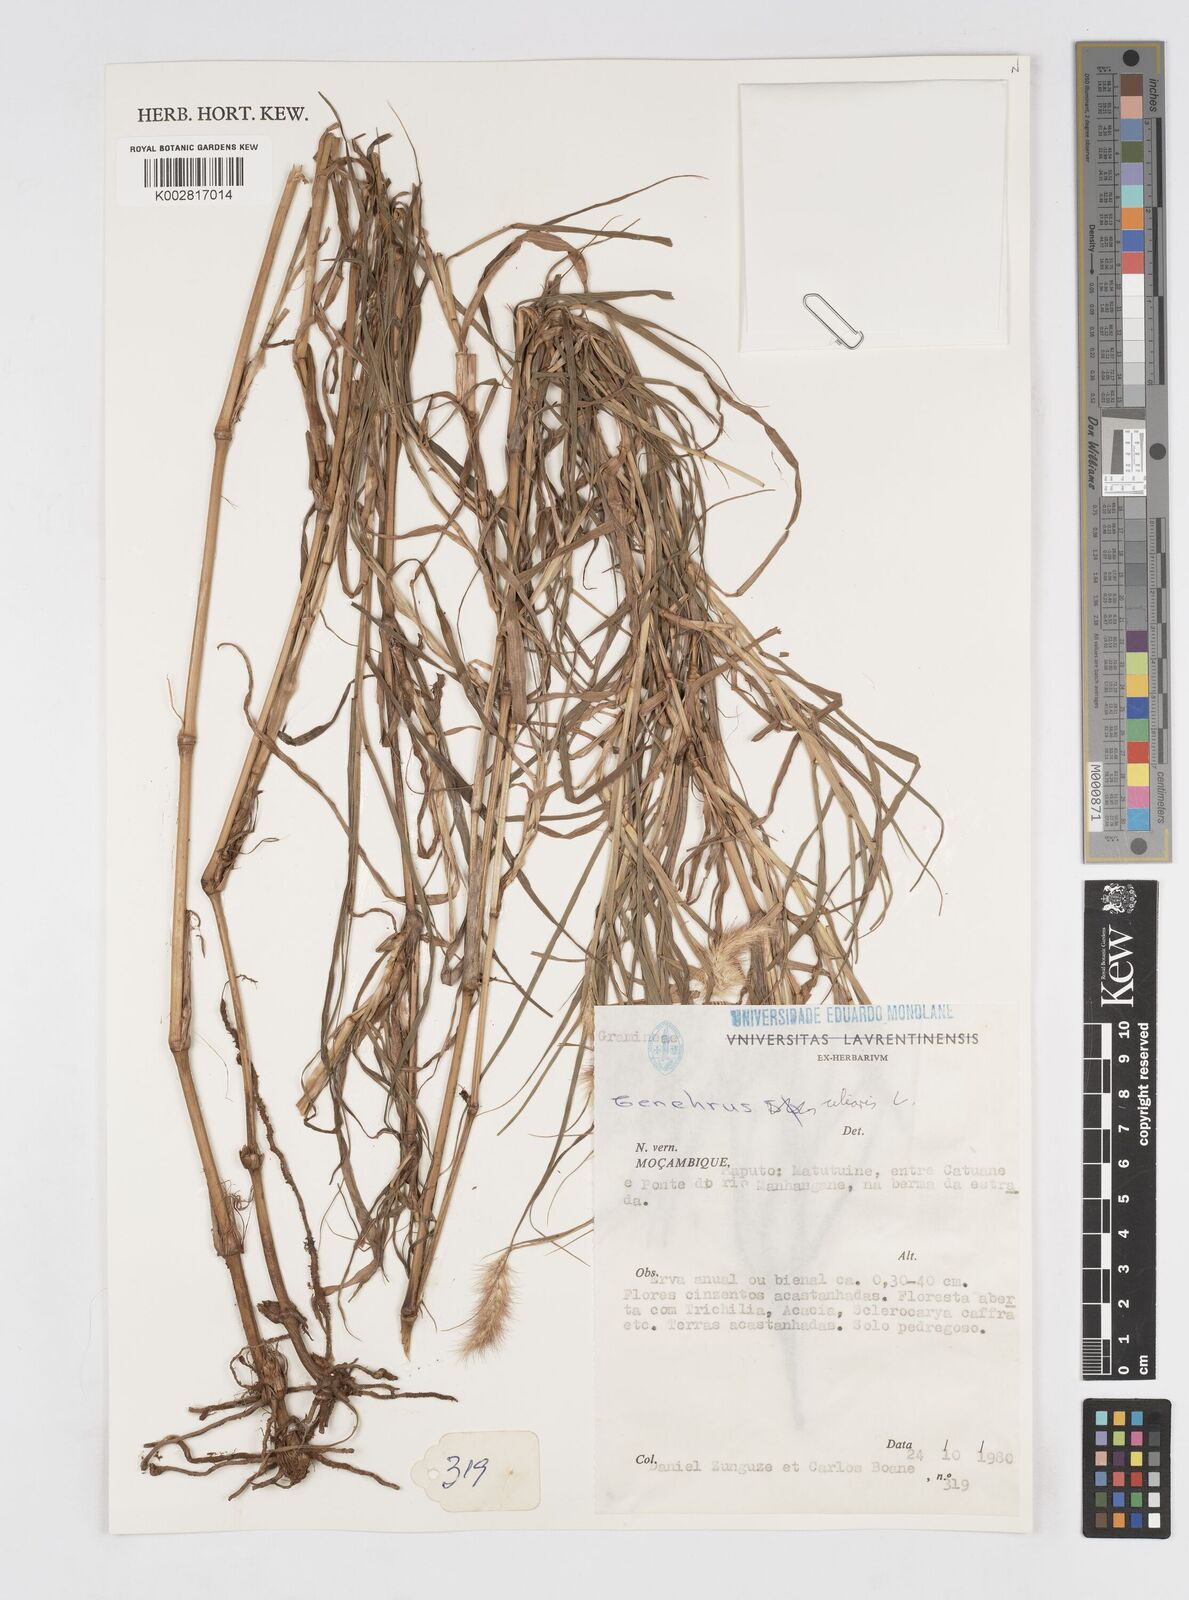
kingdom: Plantae
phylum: Tracheophyta
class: Liliopsida
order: Poales
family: Poaceae
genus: Cenchrus
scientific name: Cenchrus ciliaris
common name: Buffelgrass
